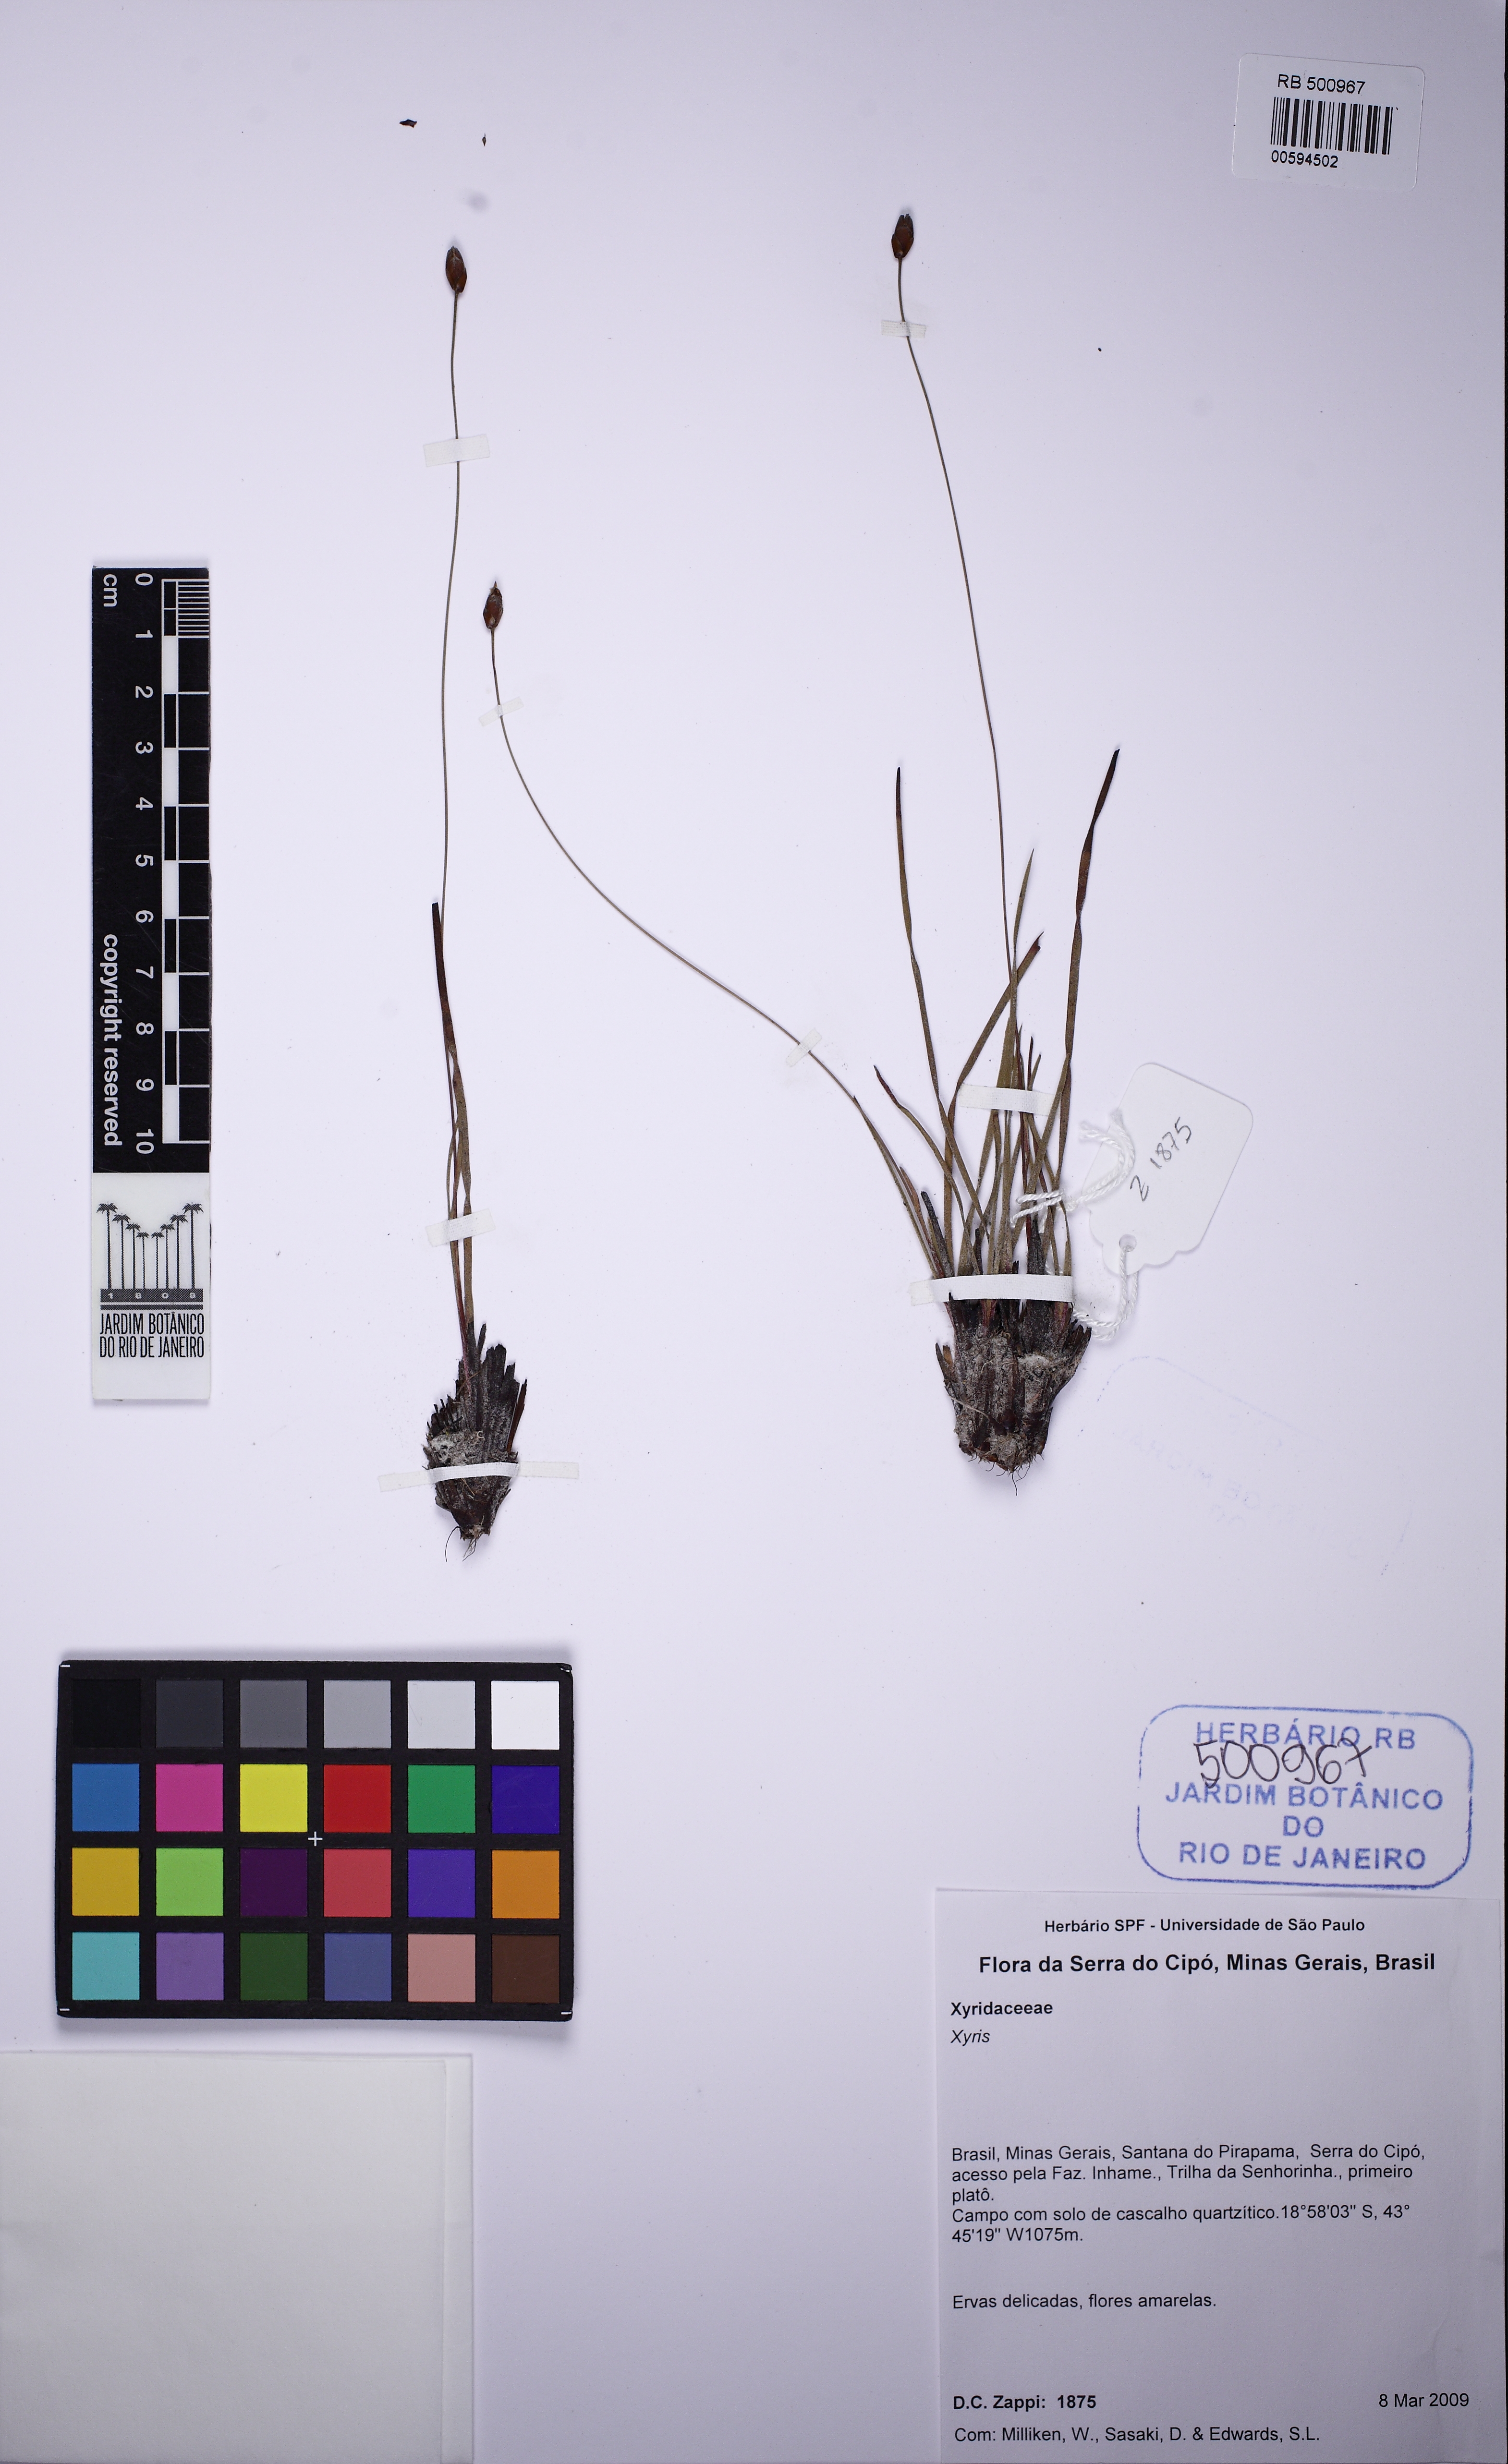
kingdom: Plantae
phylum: Tracheophyta
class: Liliopsida
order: Poales
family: Xyridaceae
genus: Xyris
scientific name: Xyris obtusiuscula
